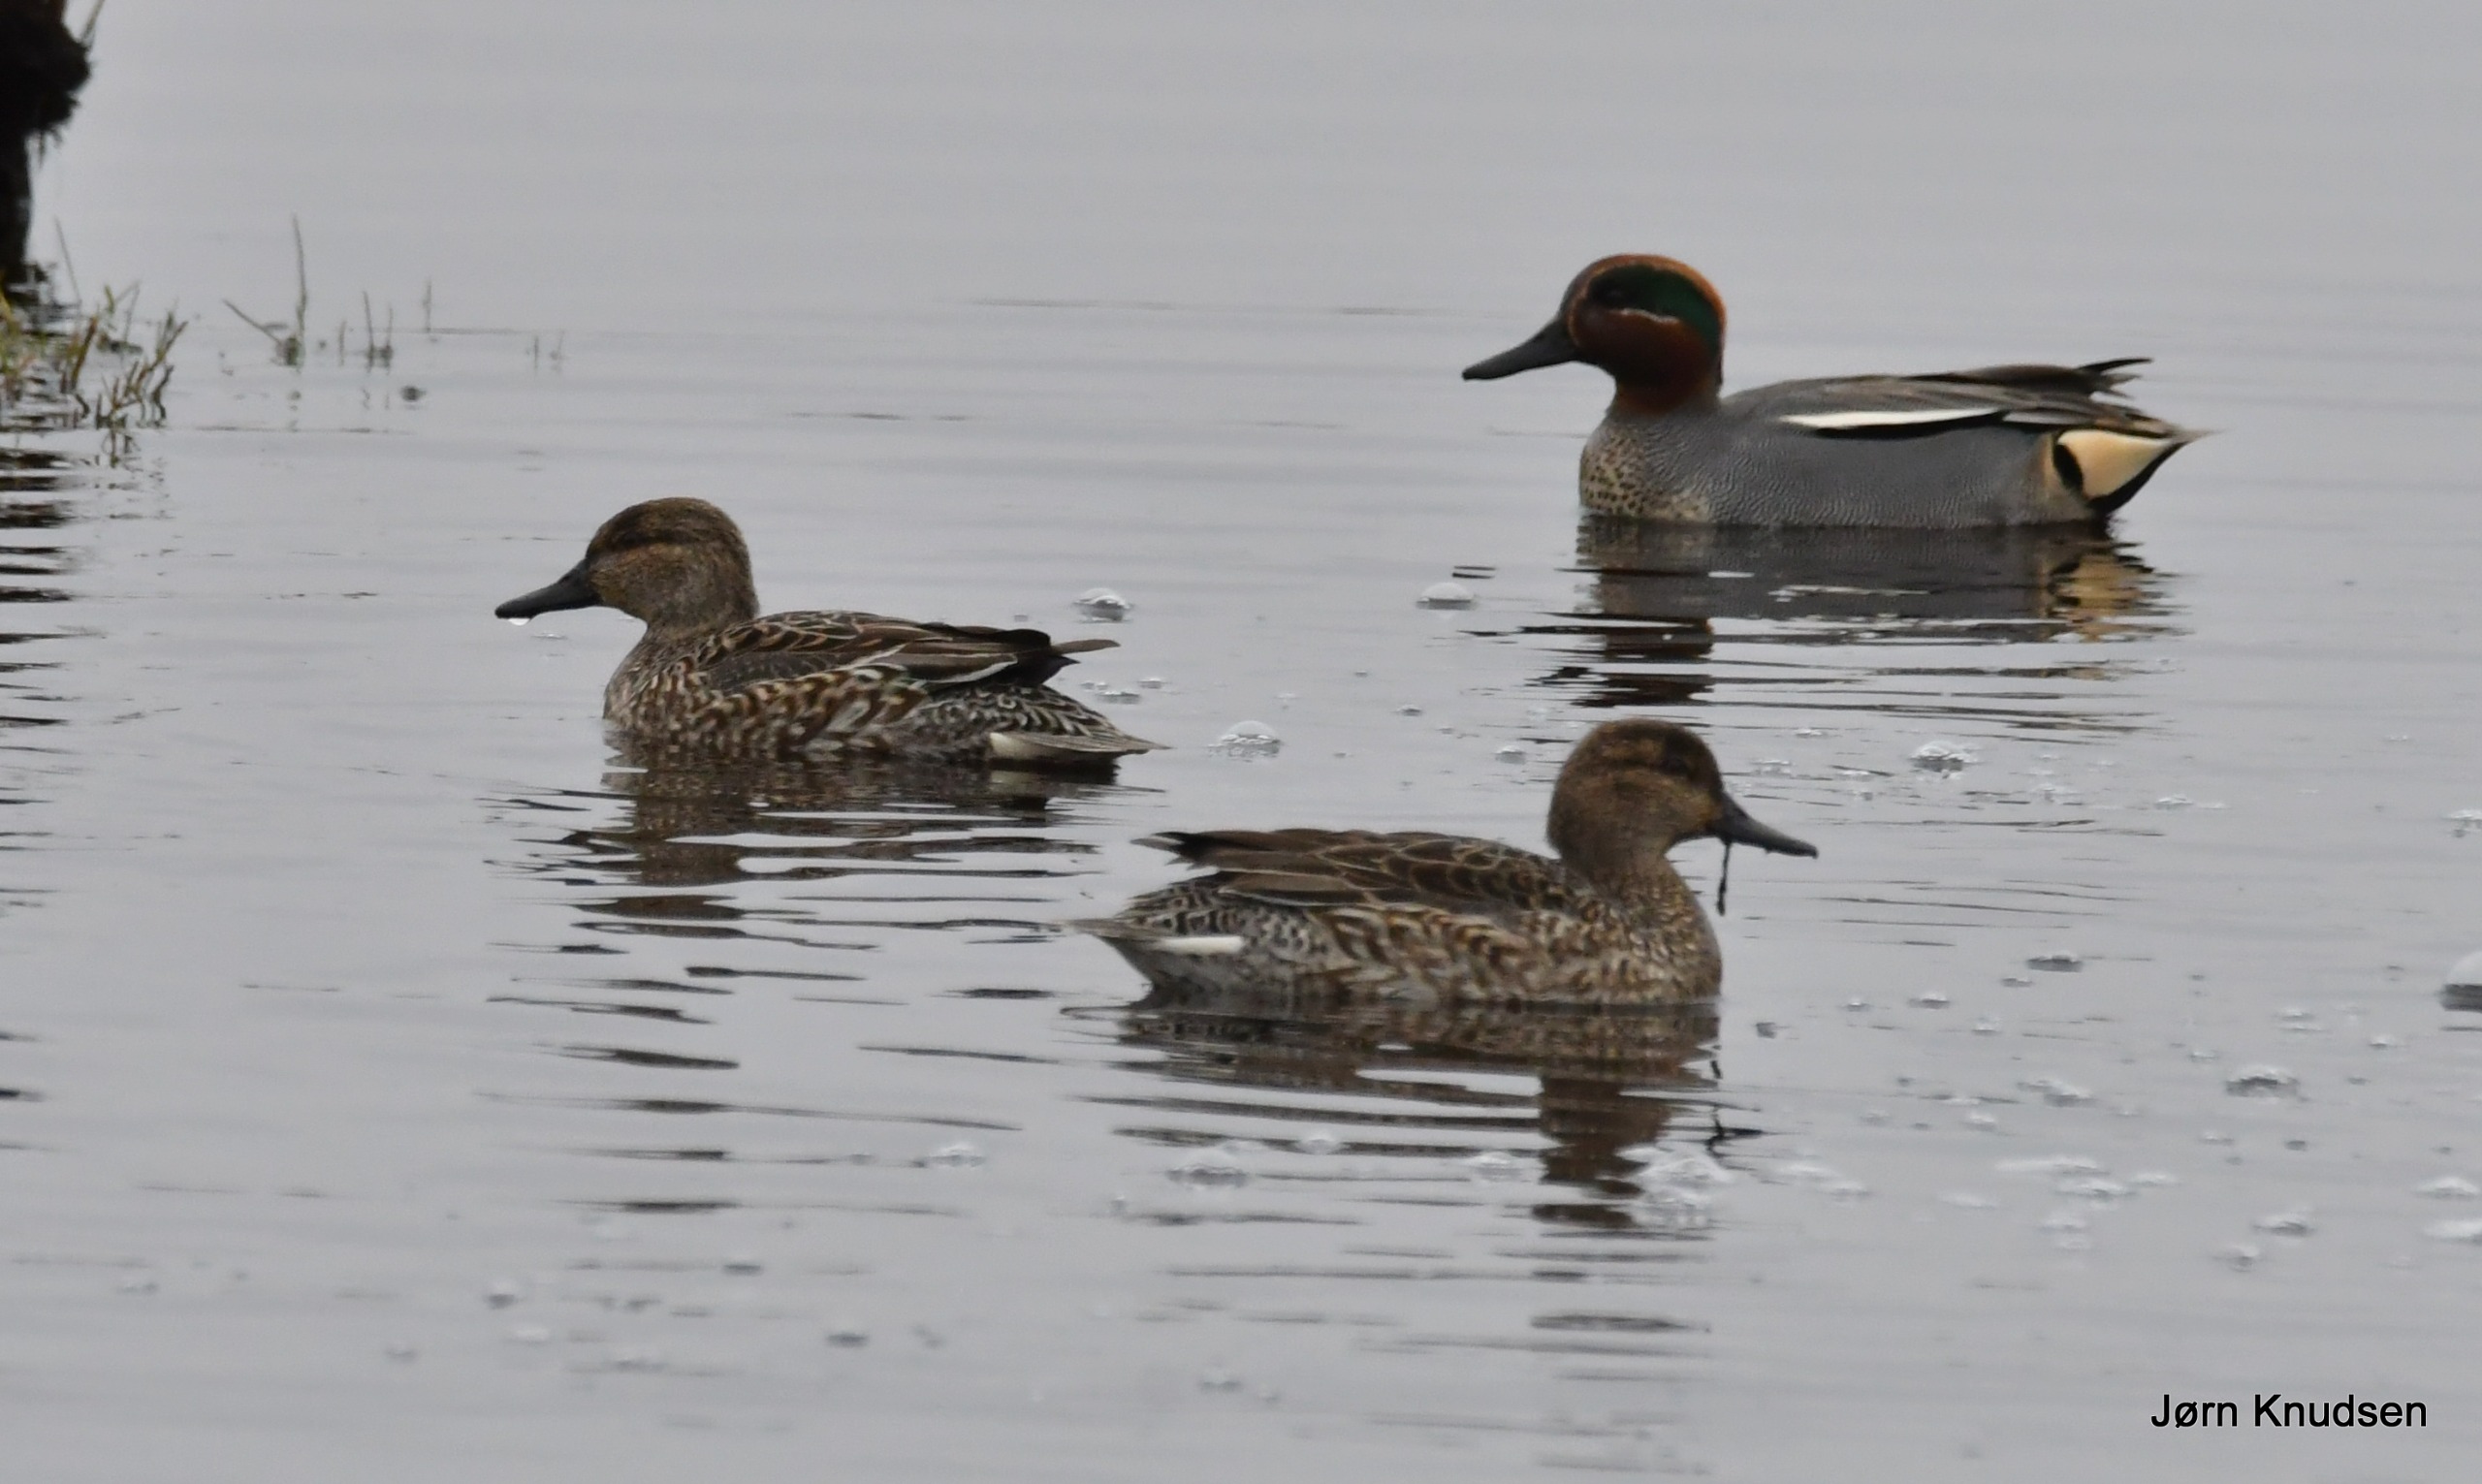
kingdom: Animalia
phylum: Chordata
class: Aves
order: Anseriformes
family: Anatidae
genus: Anas
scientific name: Anas crecca
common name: Krikand
